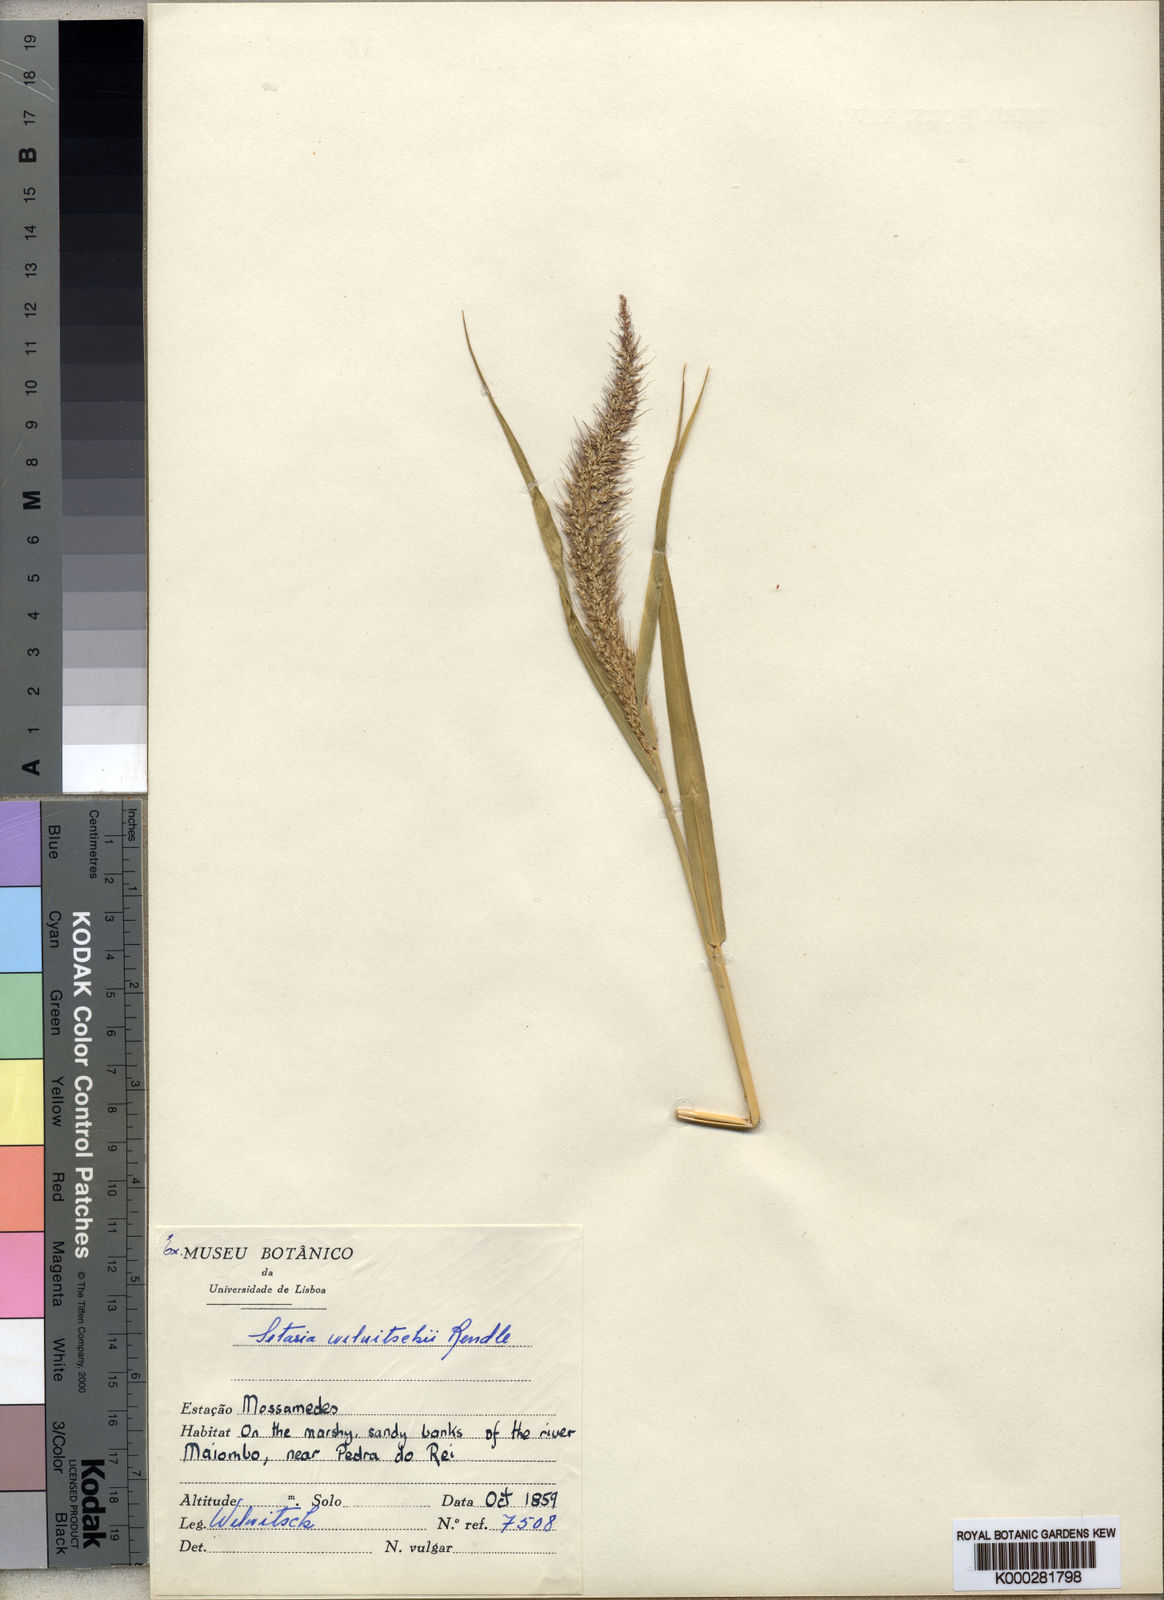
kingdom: Plantae
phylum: Tracheophyta
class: Liliopsida
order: Poales
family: Poaceae
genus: Setaria
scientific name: Setaria welwitschii
